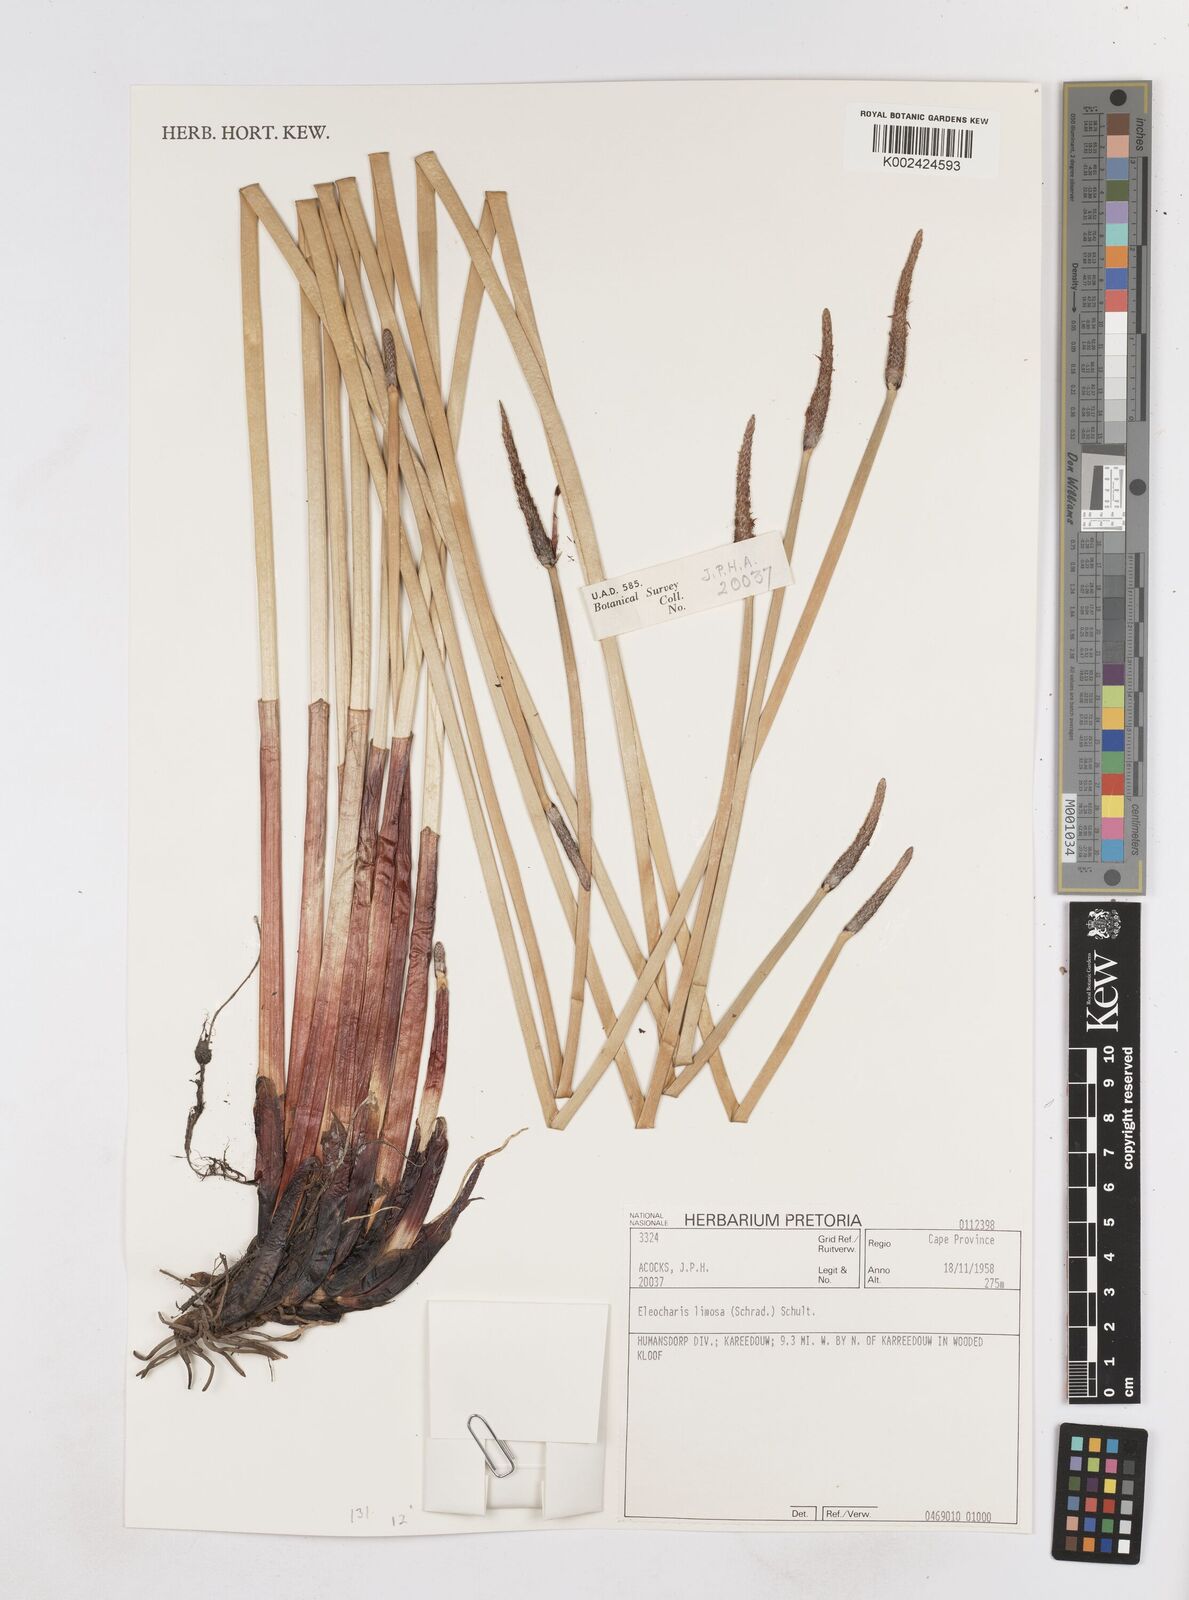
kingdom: Plantae
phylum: Tracheophyta
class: Liliopsida
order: Poales
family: Cyperaceae
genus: Eleocharis
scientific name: Eleocharis limosa
